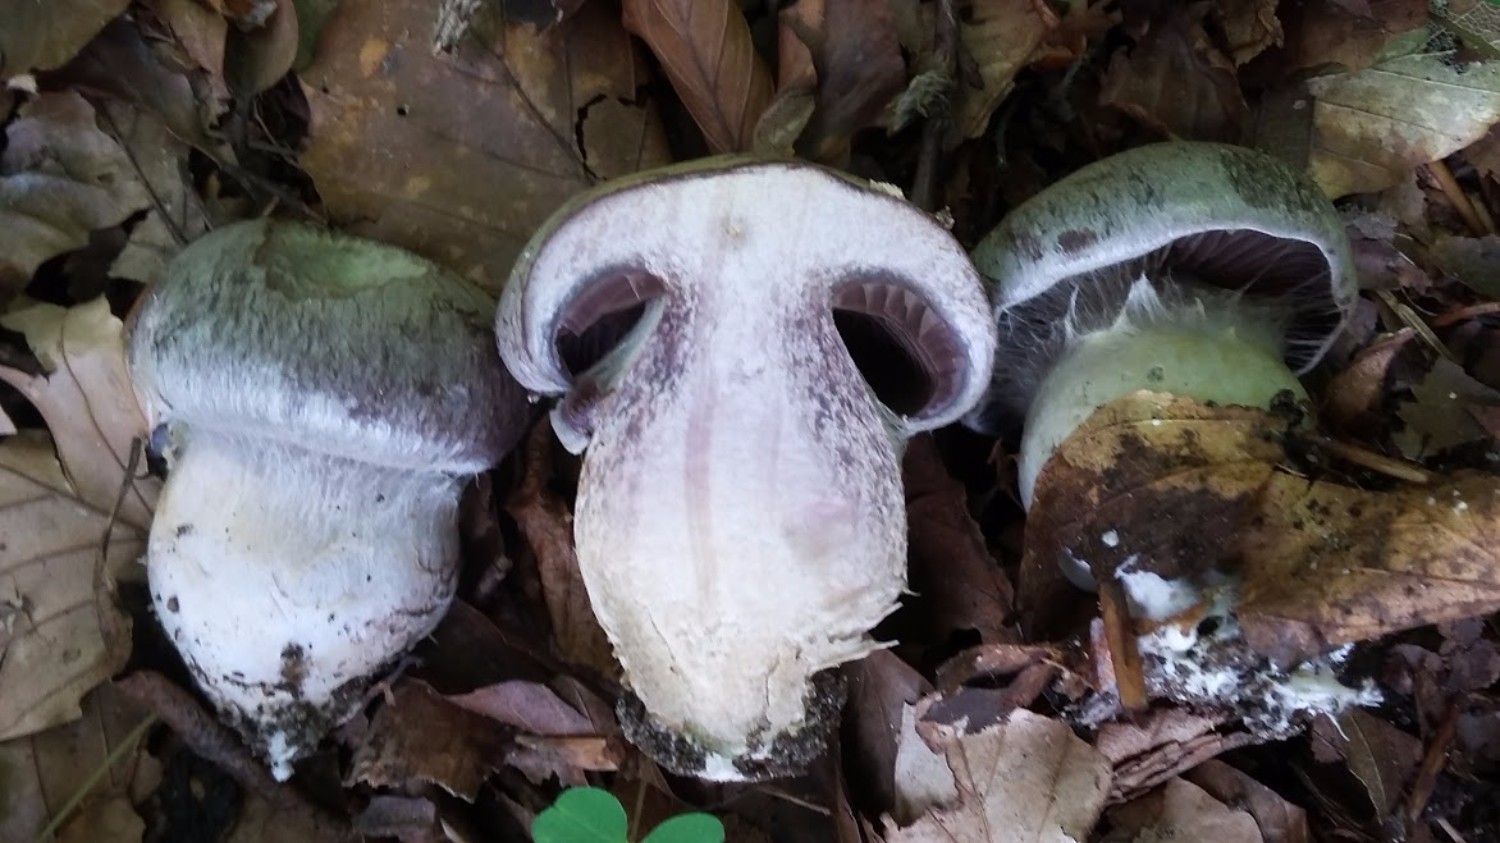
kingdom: Fungi
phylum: Basidiomycota
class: Agaricomycetes
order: Agaricales
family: Cortinariaceae
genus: Cortinarius
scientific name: Cortinarius largus
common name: violetrandet slørhat
